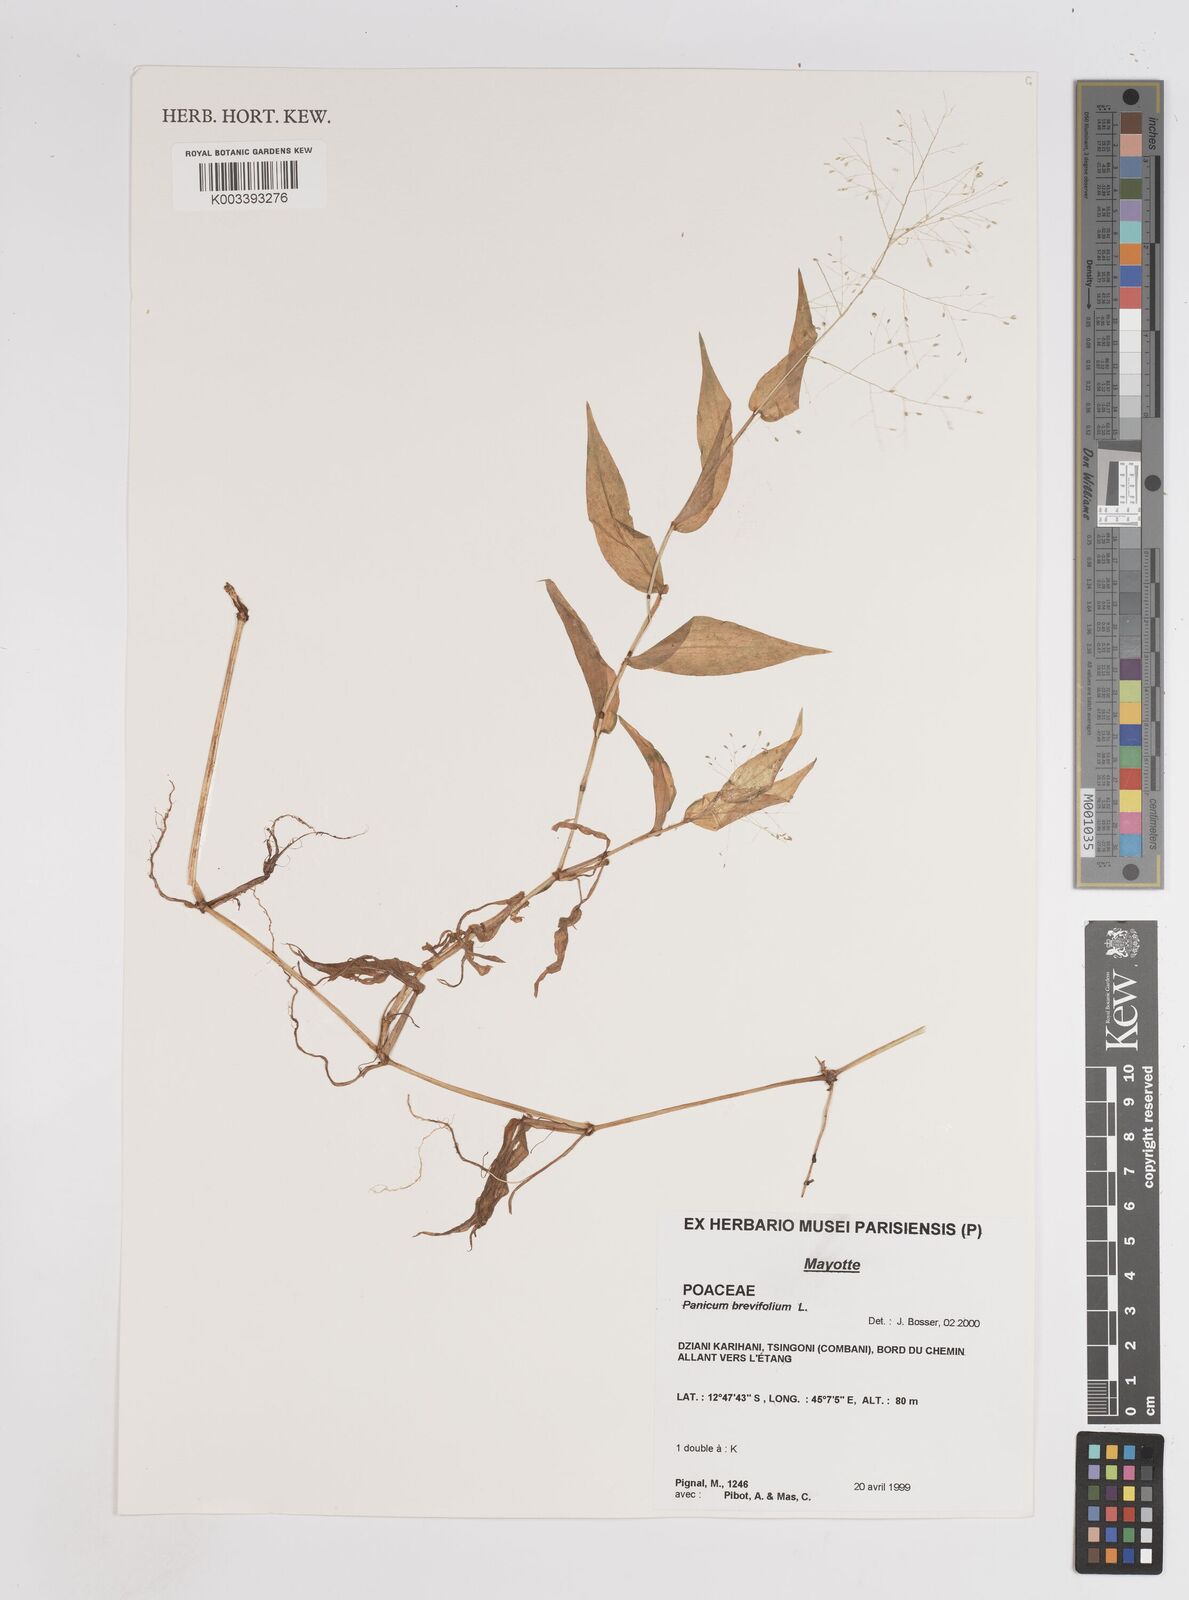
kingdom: Plantae
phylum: Tracheophyta
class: Liliopsida
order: Poales
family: Poaceae
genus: Panicum
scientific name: Panicum brevifolium
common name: Shortleaf panic grass
